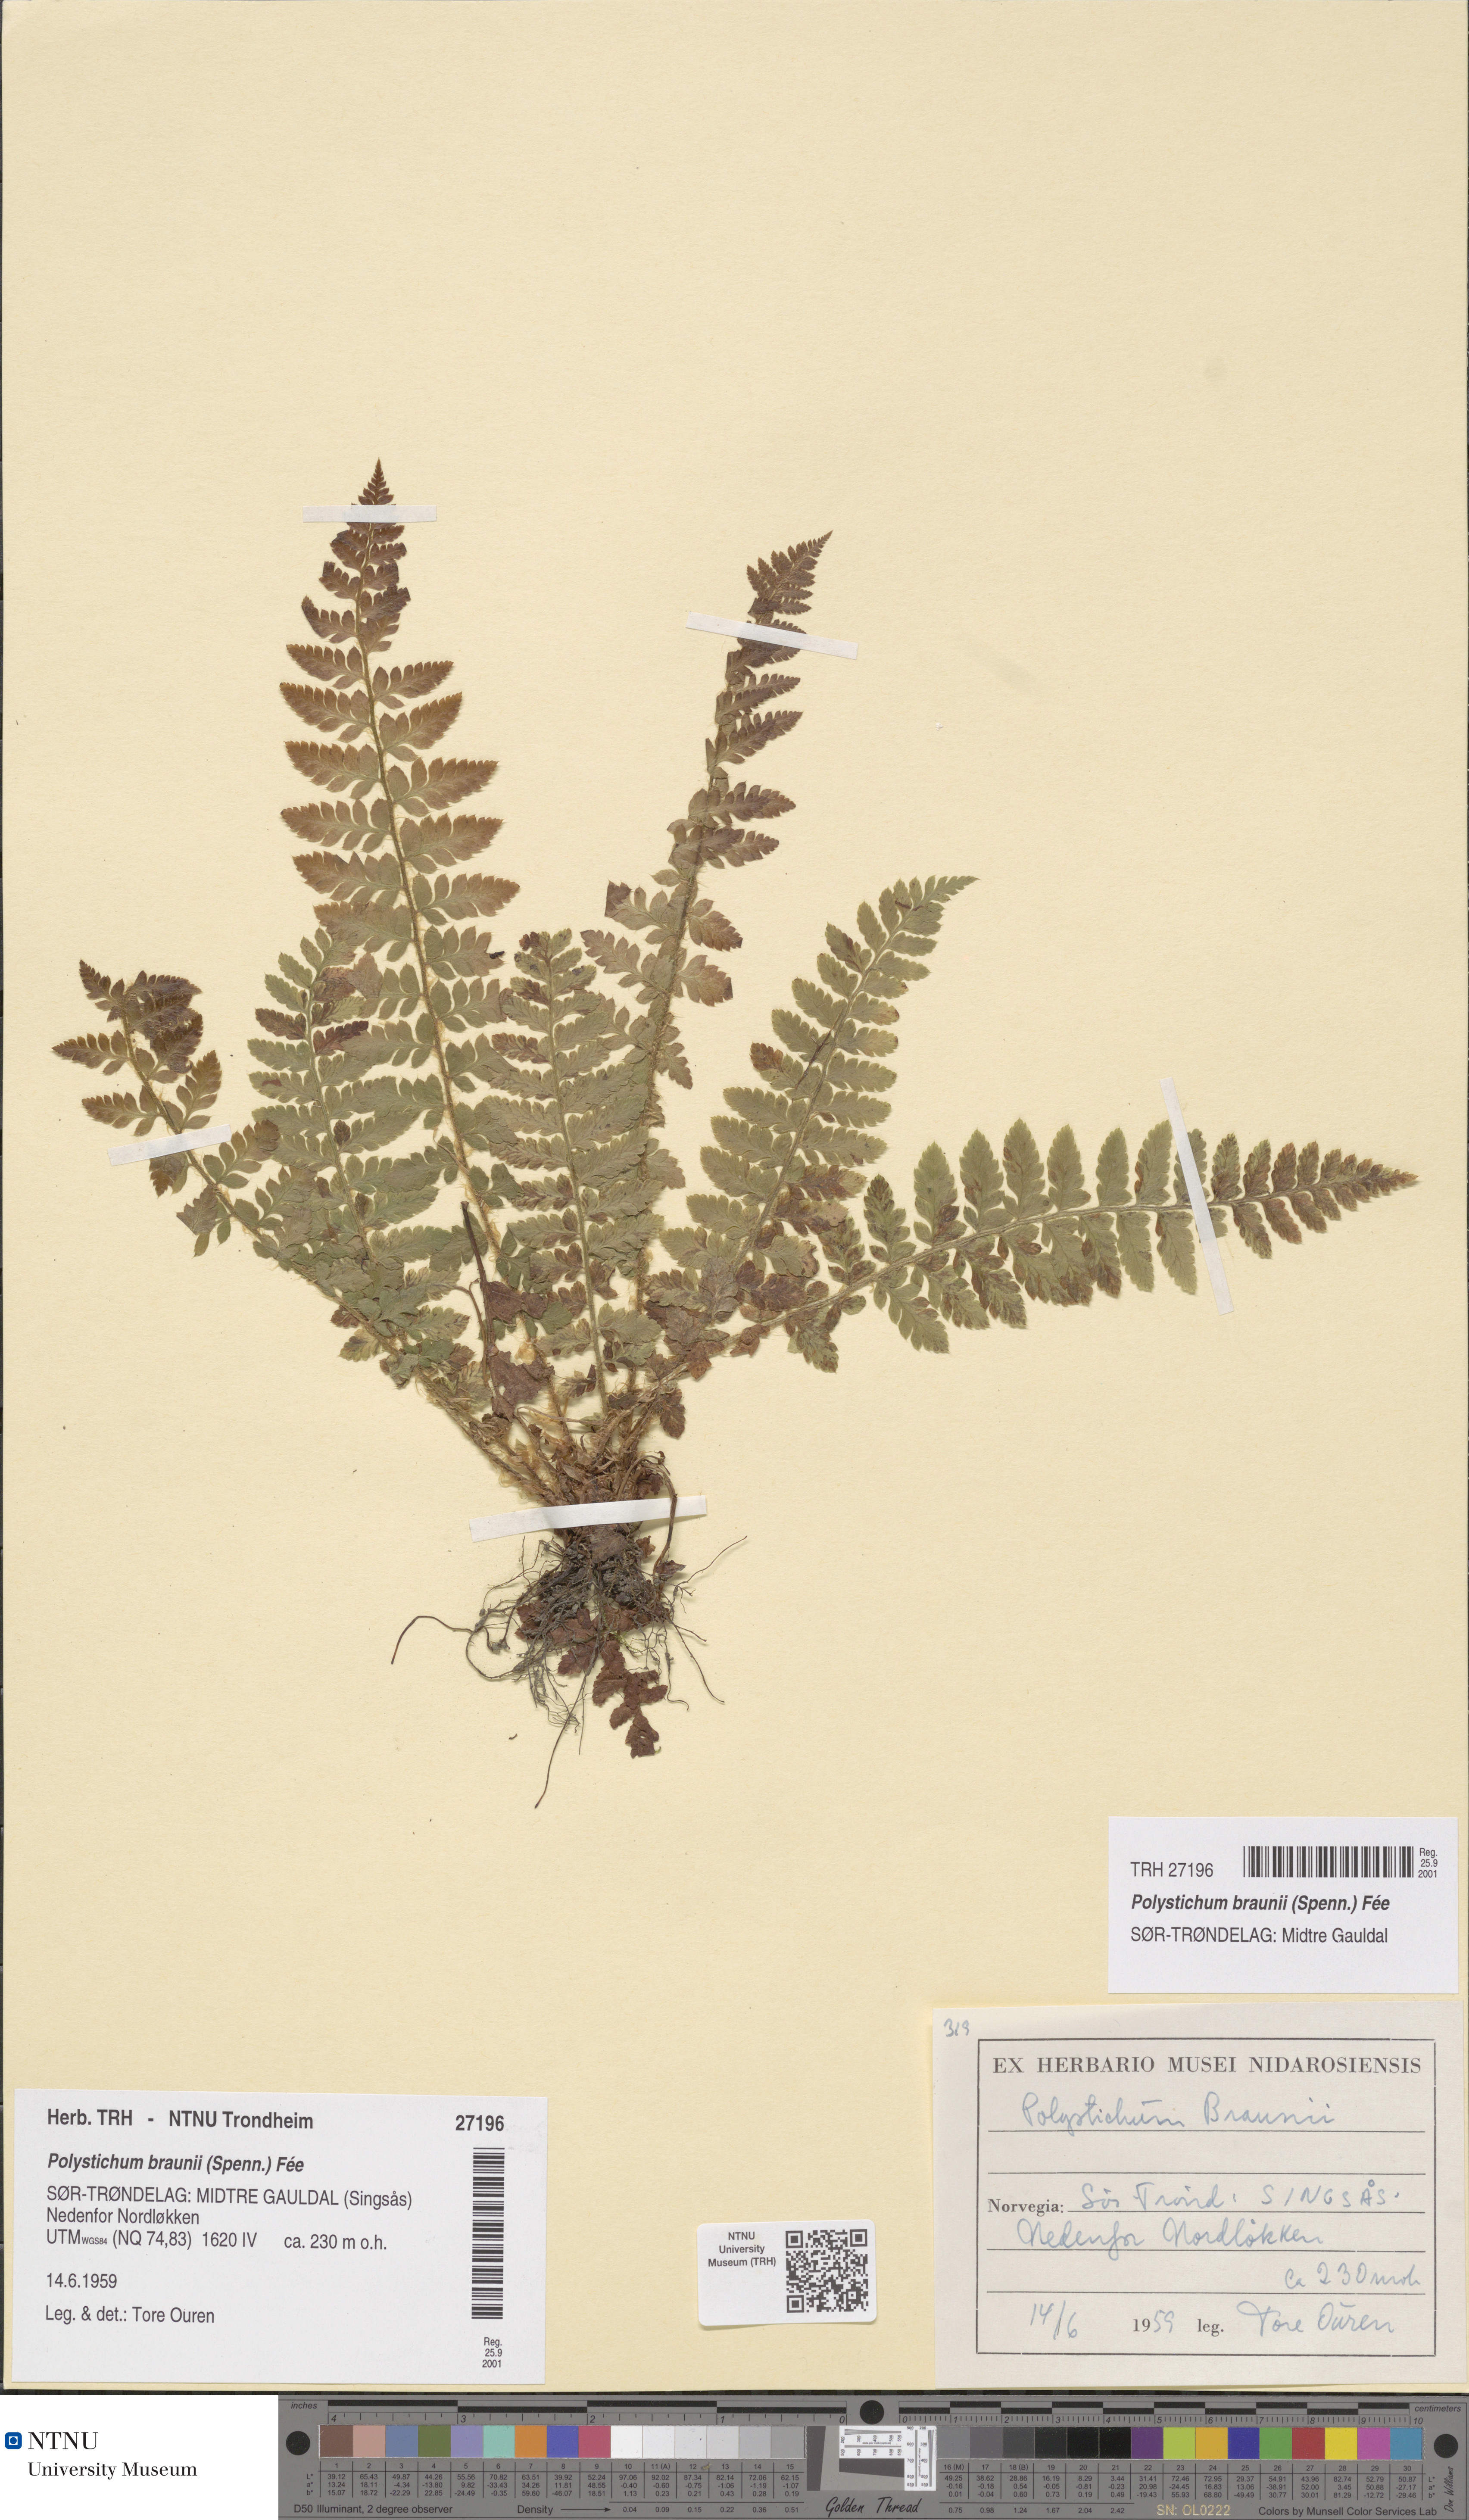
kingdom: Plantae
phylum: Tracheophyta
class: Polypodiopsida
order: Polypodiales
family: Dryopteridaceae
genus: Polystichum
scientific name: Polystichum braunii
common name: Braun's holly fern
